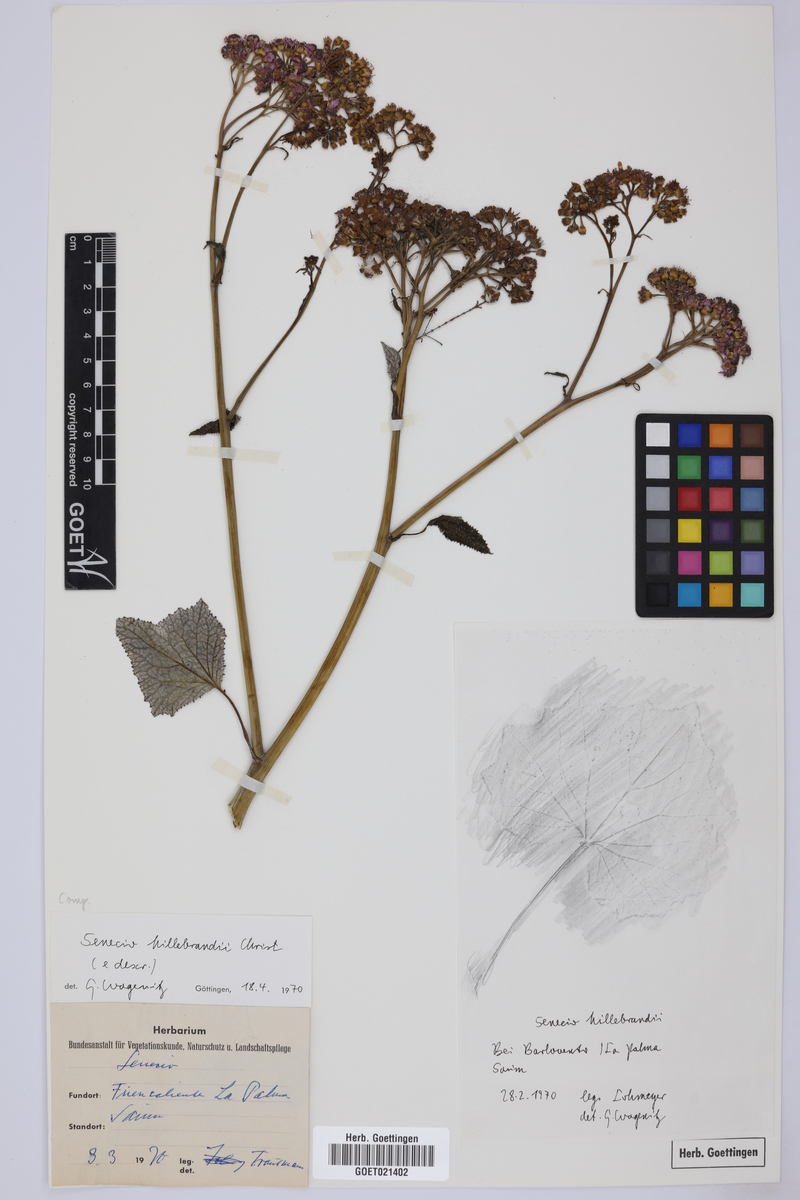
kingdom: Plantae
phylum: Tracheophyta
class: Magnoliopsida
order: Asterales
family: Asteraceae
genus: Pericallis
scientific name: Pericallis papyracea
